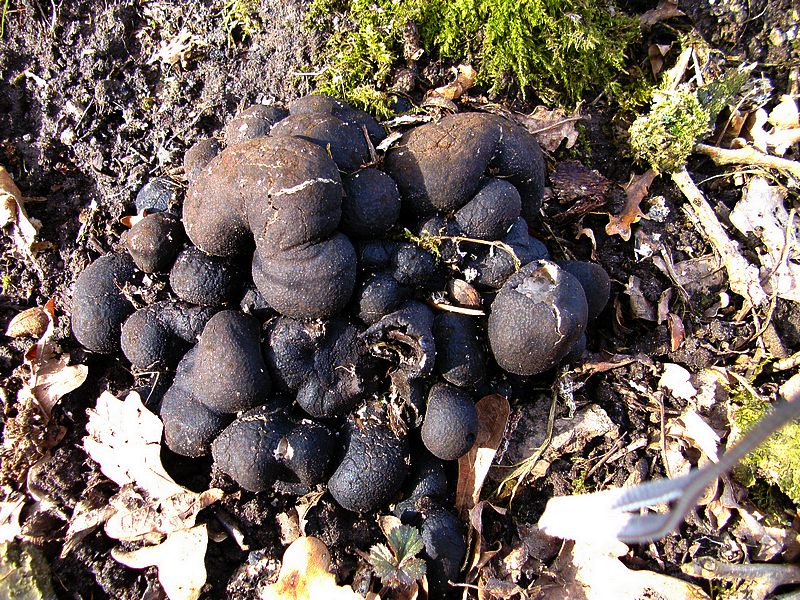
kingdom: Fungi
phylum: Ascomycota
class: Sordariomycetes
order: Xylariales
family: Xylariaceae
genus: Xylaria
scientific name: Xylaria polymorpha
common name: kølle-stødsvamp
